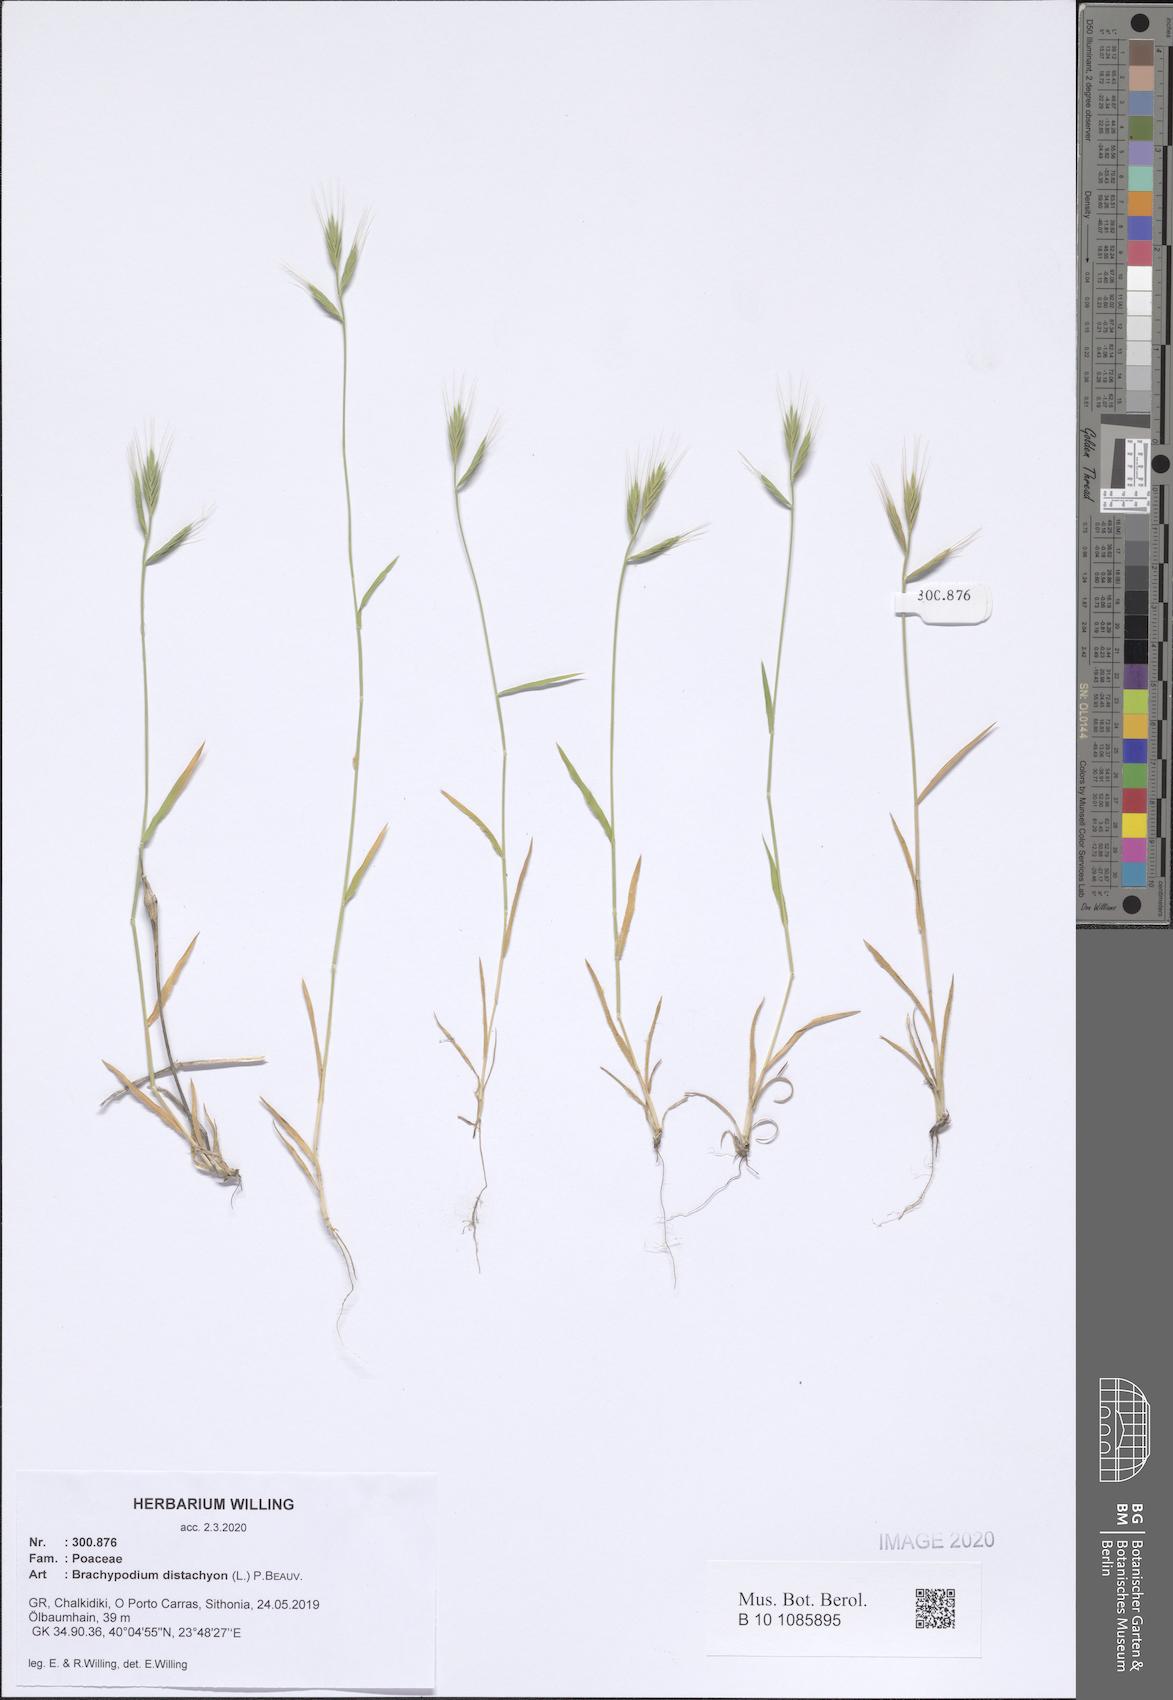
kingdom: Plantae
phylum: Tracheophyta
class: Liliopsida
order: Poales
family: Poaceae
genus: Brachypodium
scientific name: Brachypodium distachyon
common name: Stiff brome
